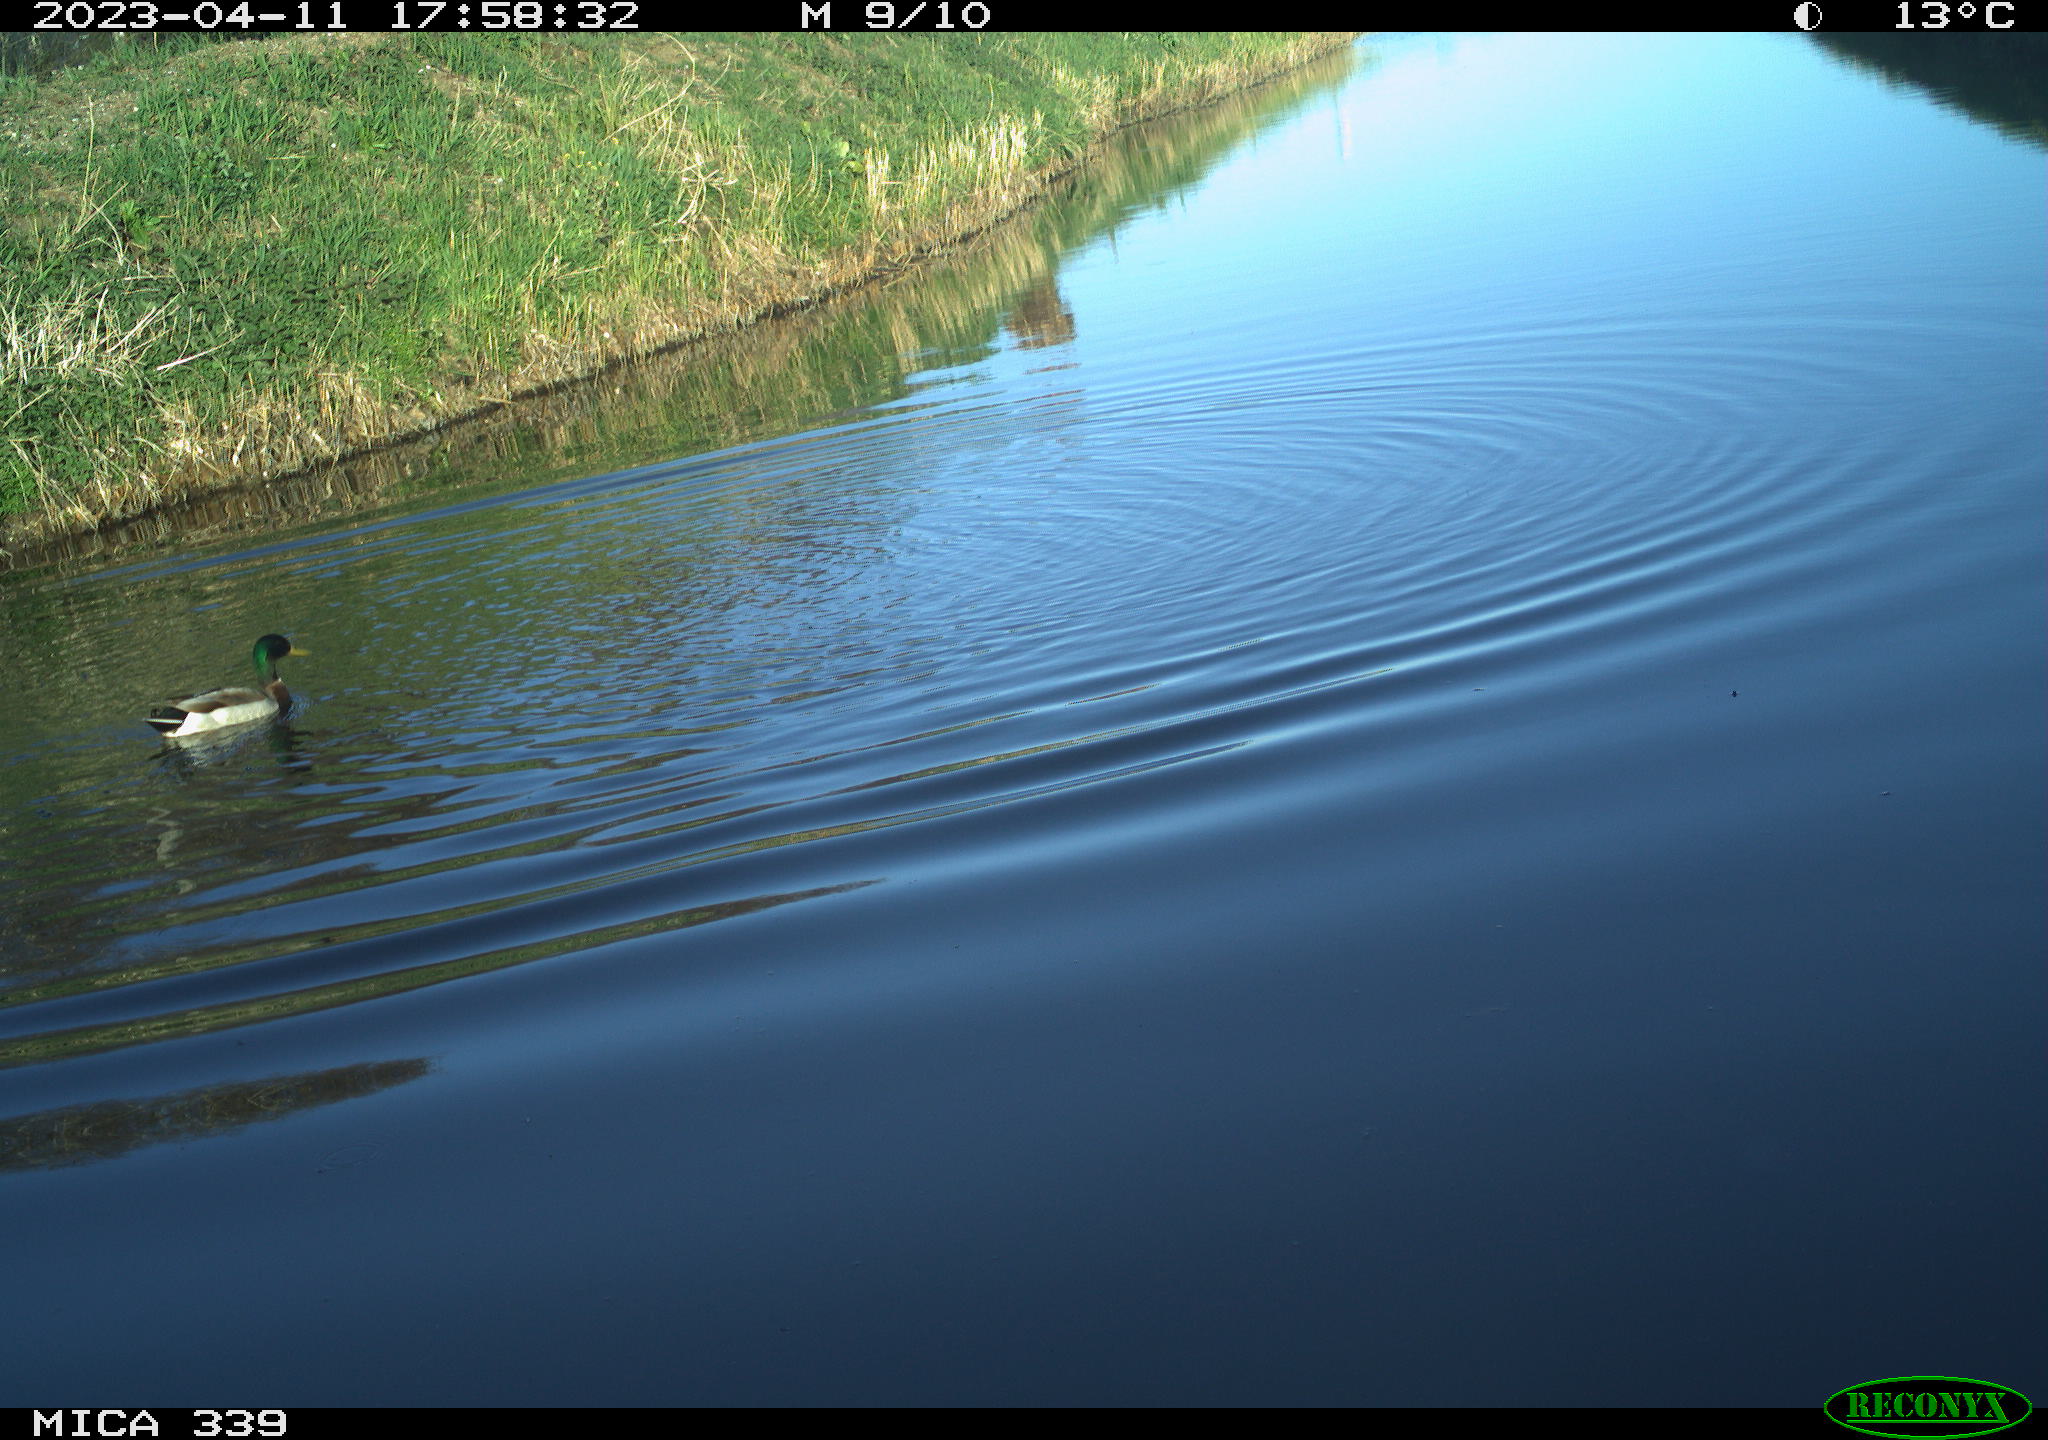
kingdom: Animalia
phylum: Chordata
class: Aves
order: Anseriformes
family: Anatidae
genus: Anas
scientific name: Anas
